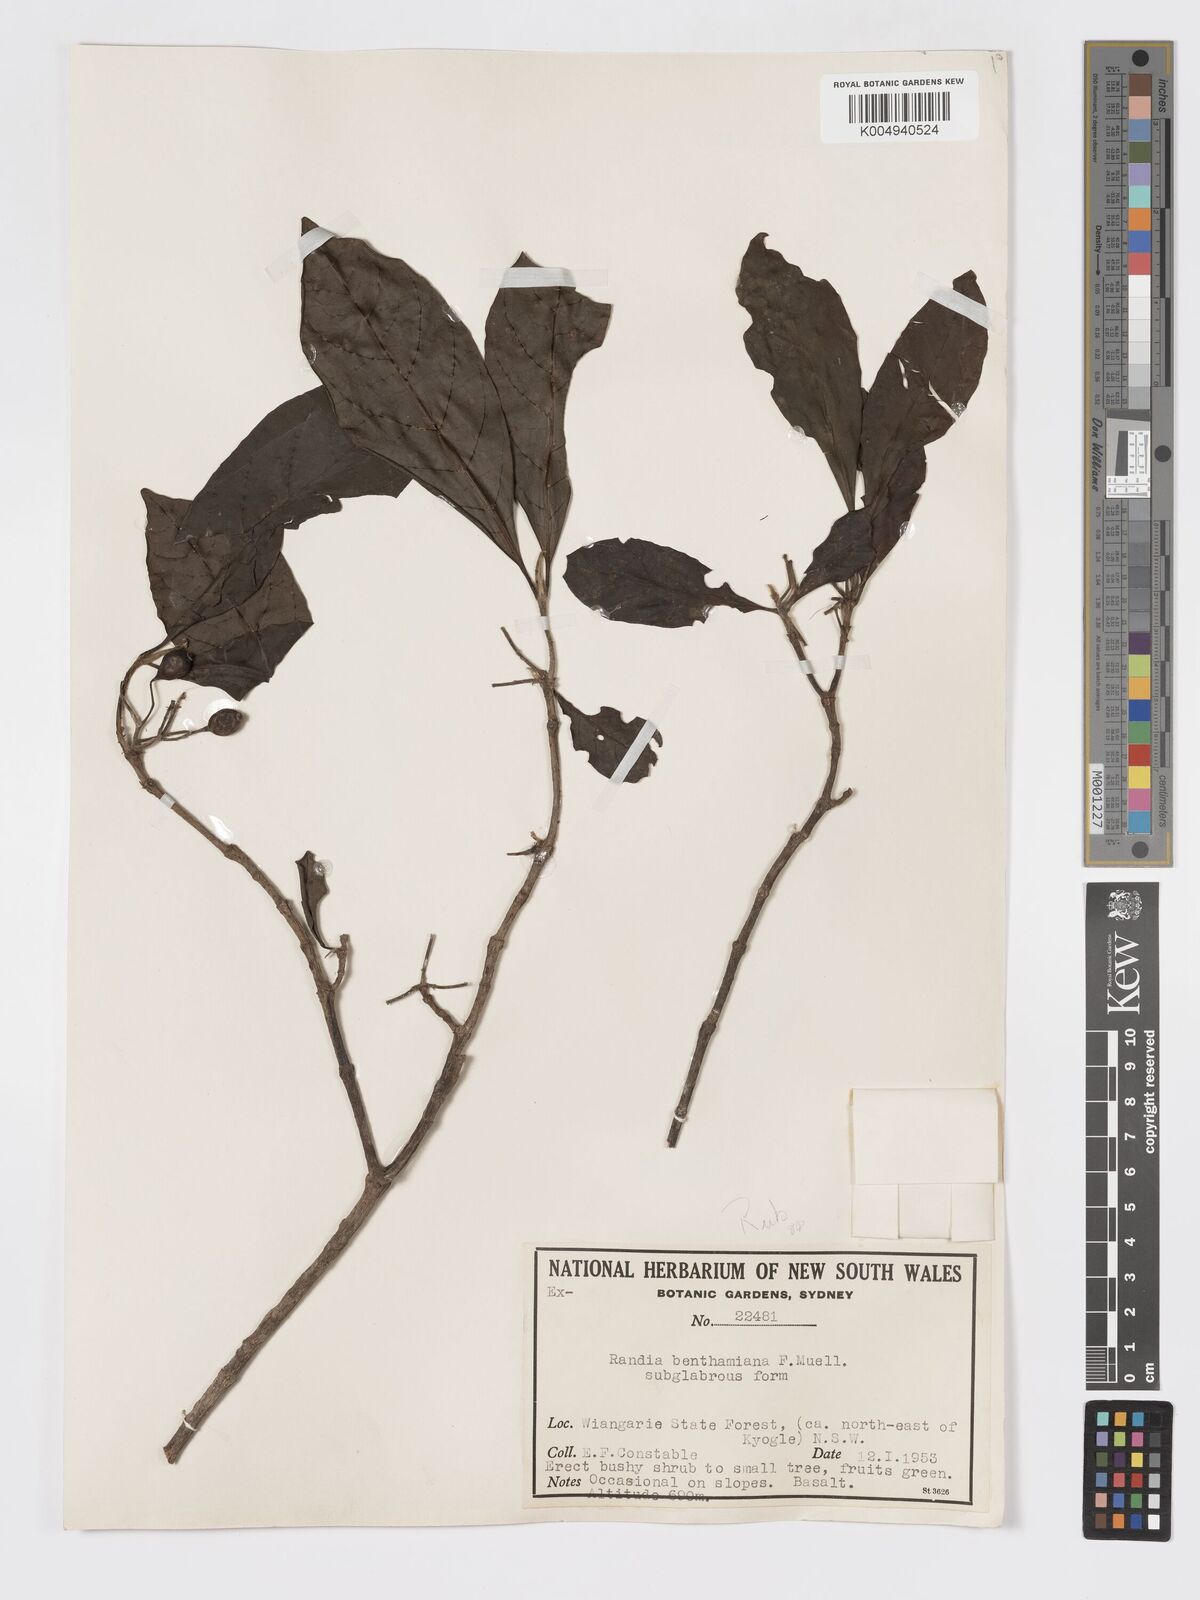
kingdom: Plantae
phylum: Tracheophyta
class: Magnoliopsida
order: Gentianales
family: Rubiaceae
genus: Atractocarpus
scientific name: Atractocarpus benthamianus
